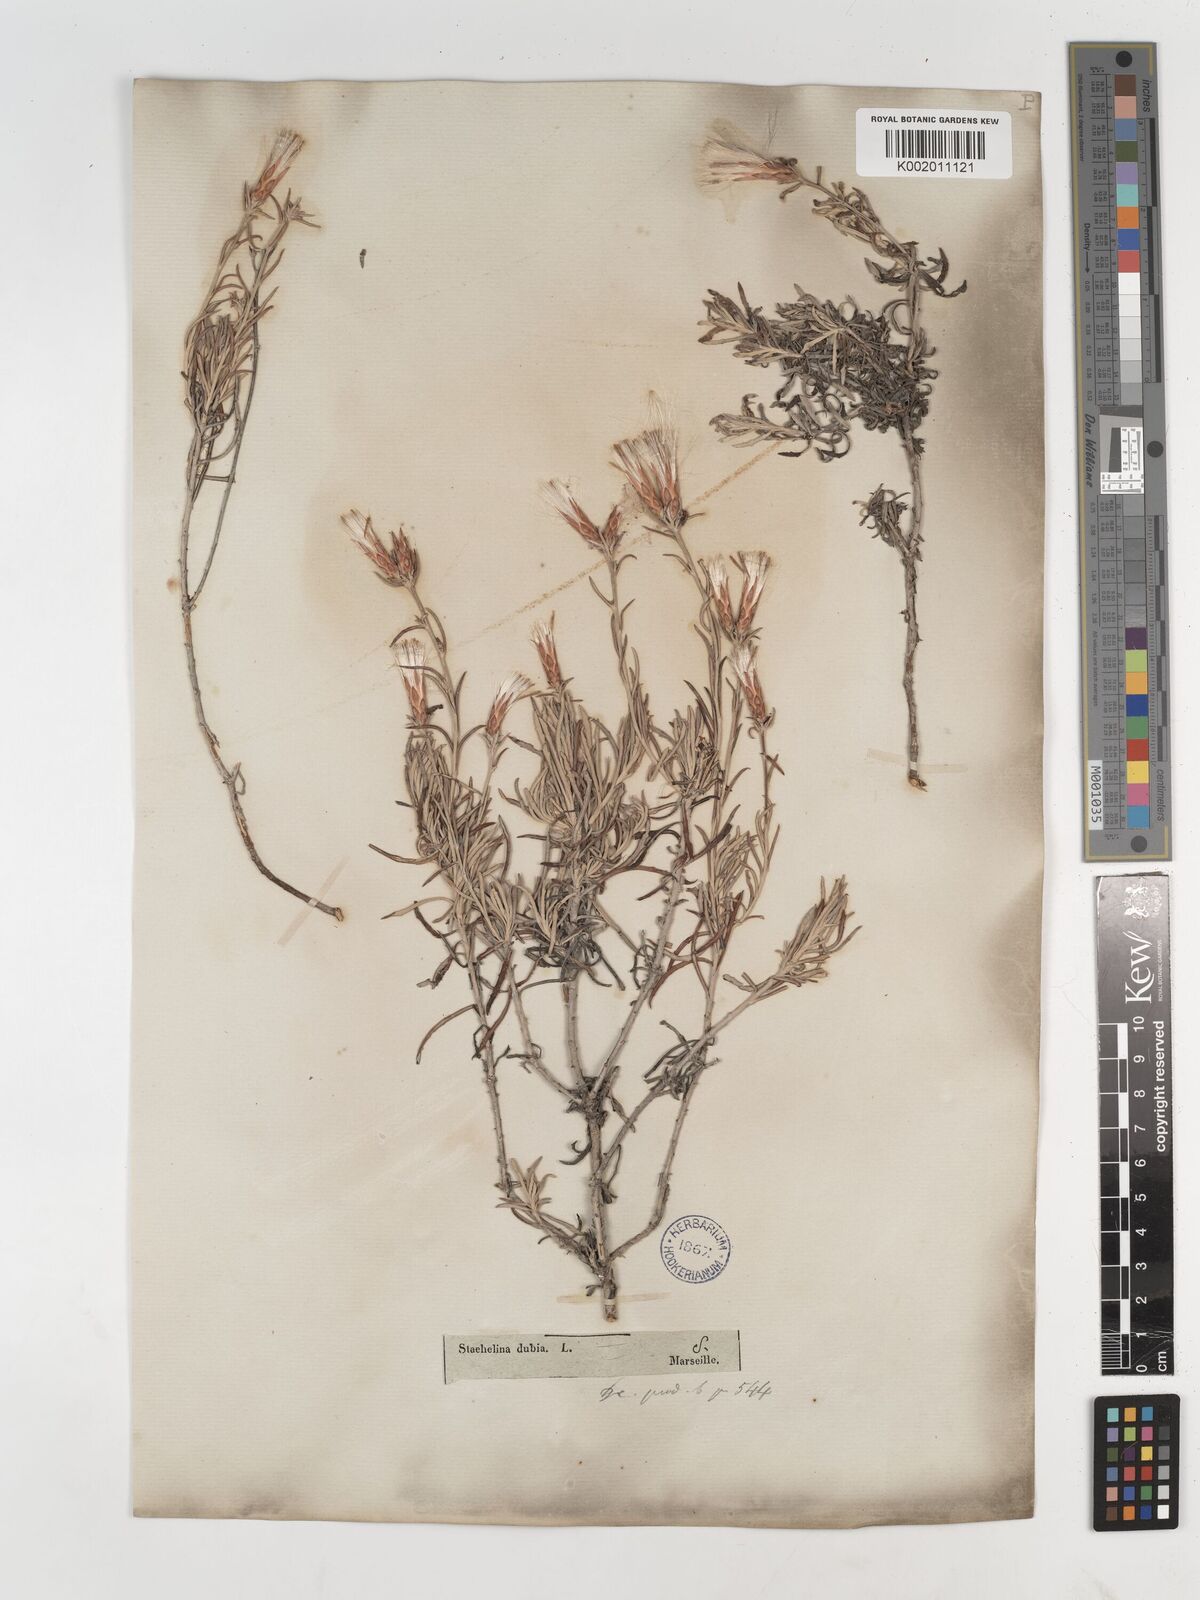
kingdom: Plantae
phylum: Tracheophyta
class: Magnoliopsida
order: Asterales
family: Asteraceae
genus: Staehelina
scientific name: Staehelina dubia
